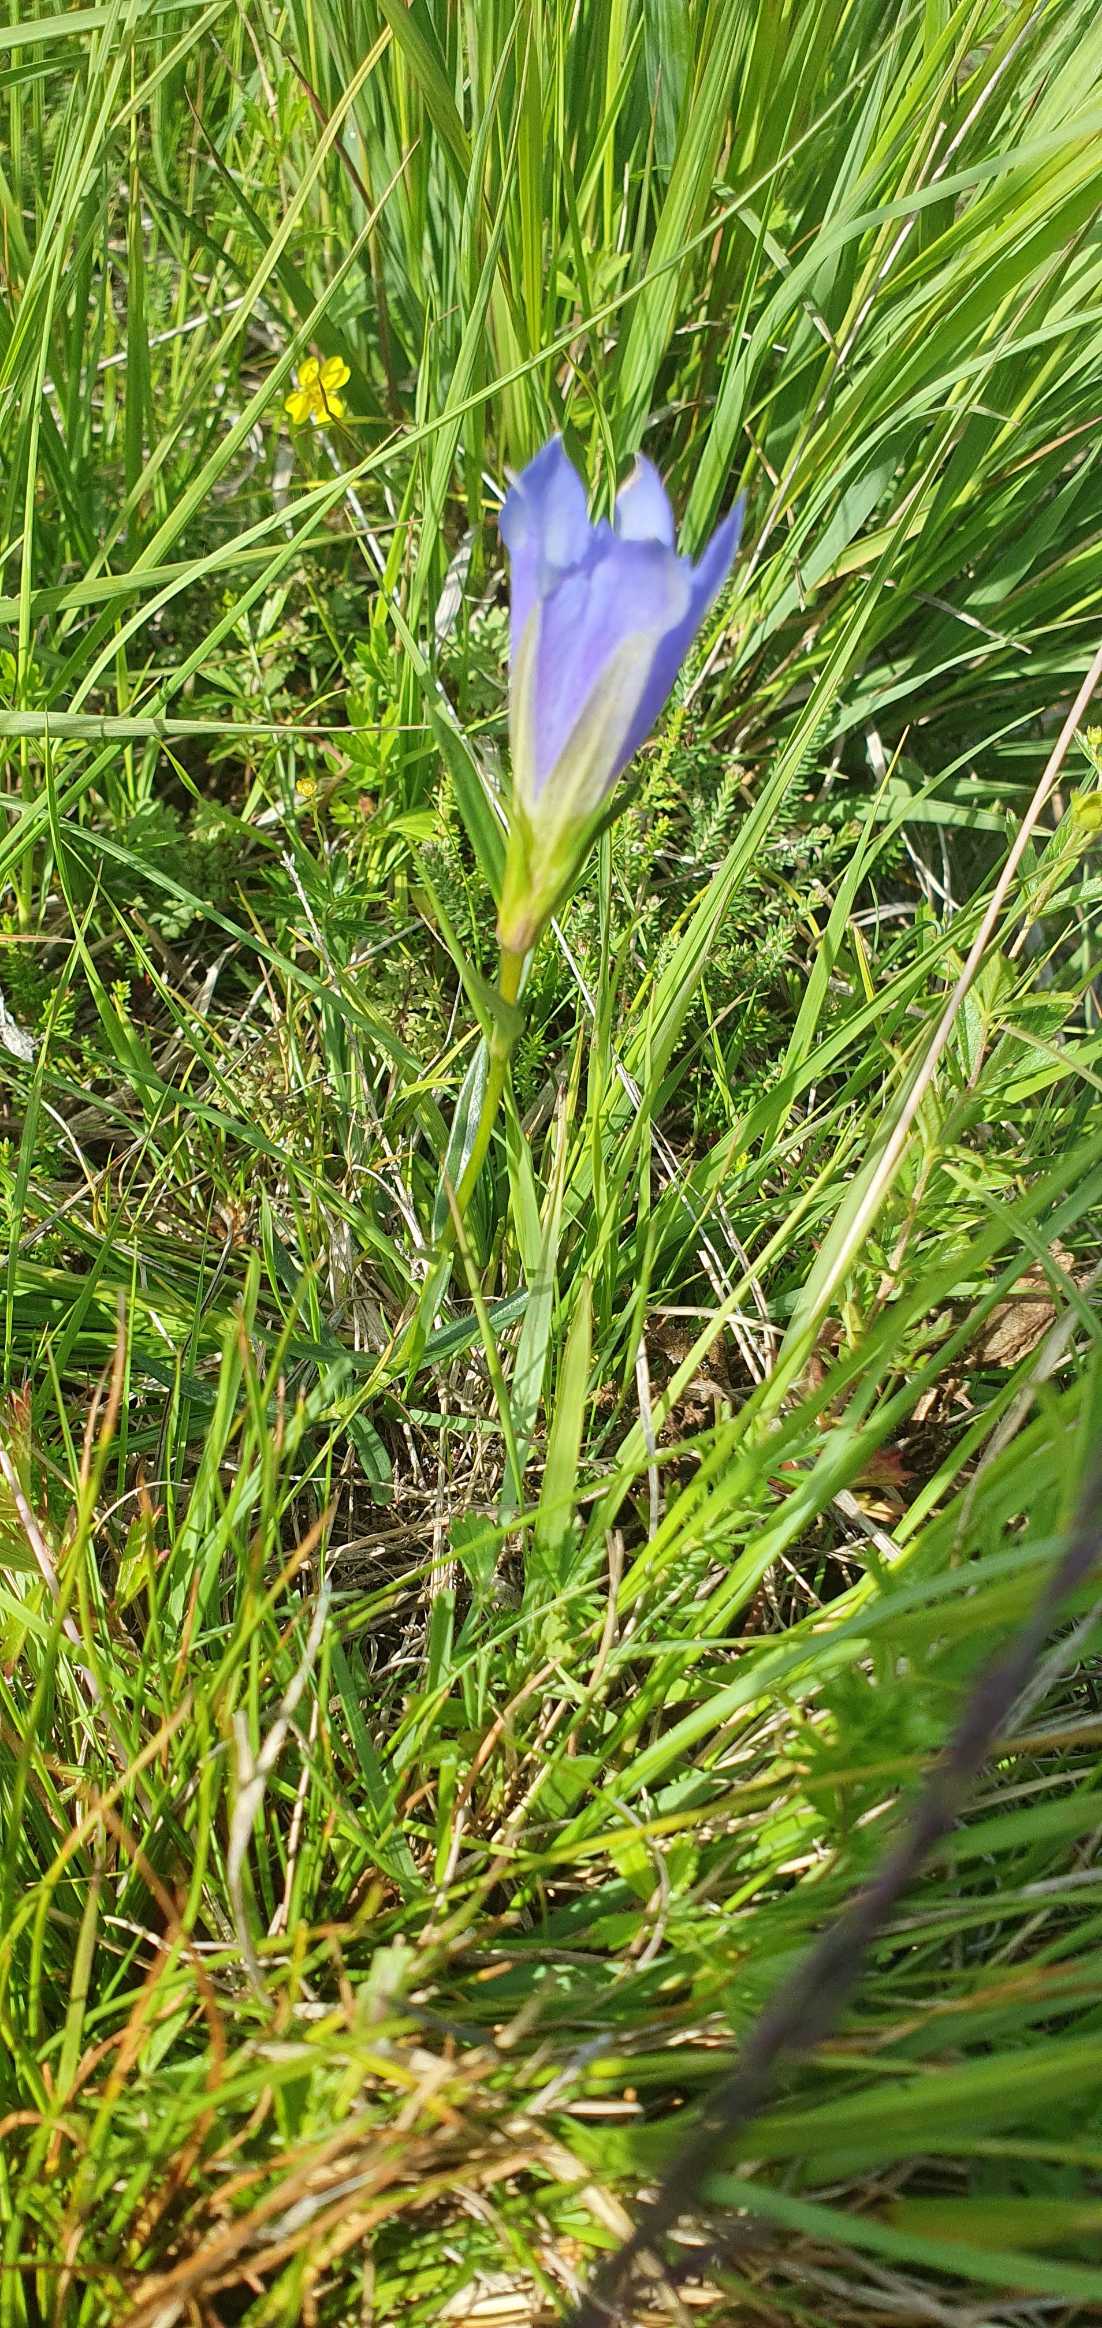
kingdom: Plantae
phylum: Tracheophyta
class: Magnoliopsida
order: Gentianales
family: Gentianaceae
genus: Gentiana
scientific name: Gentiana pneumonanthe
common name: Klokke-ensian
